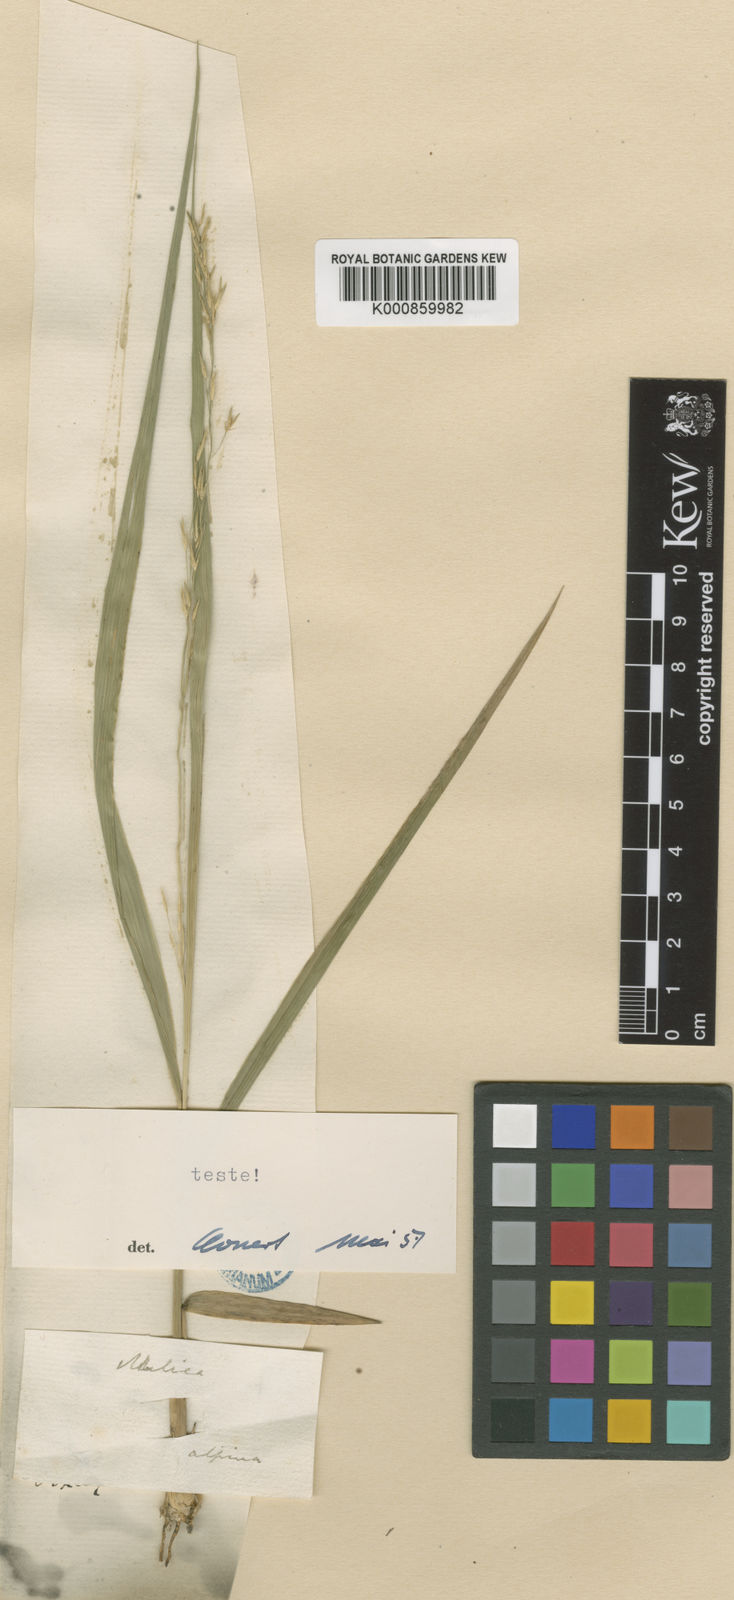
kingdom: Plantae
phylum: Tracheophyta
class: Liliopsida
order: Poales
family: Poaceae
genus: Molinia
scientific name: Molinia caerulea
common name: Purple moor-grass
